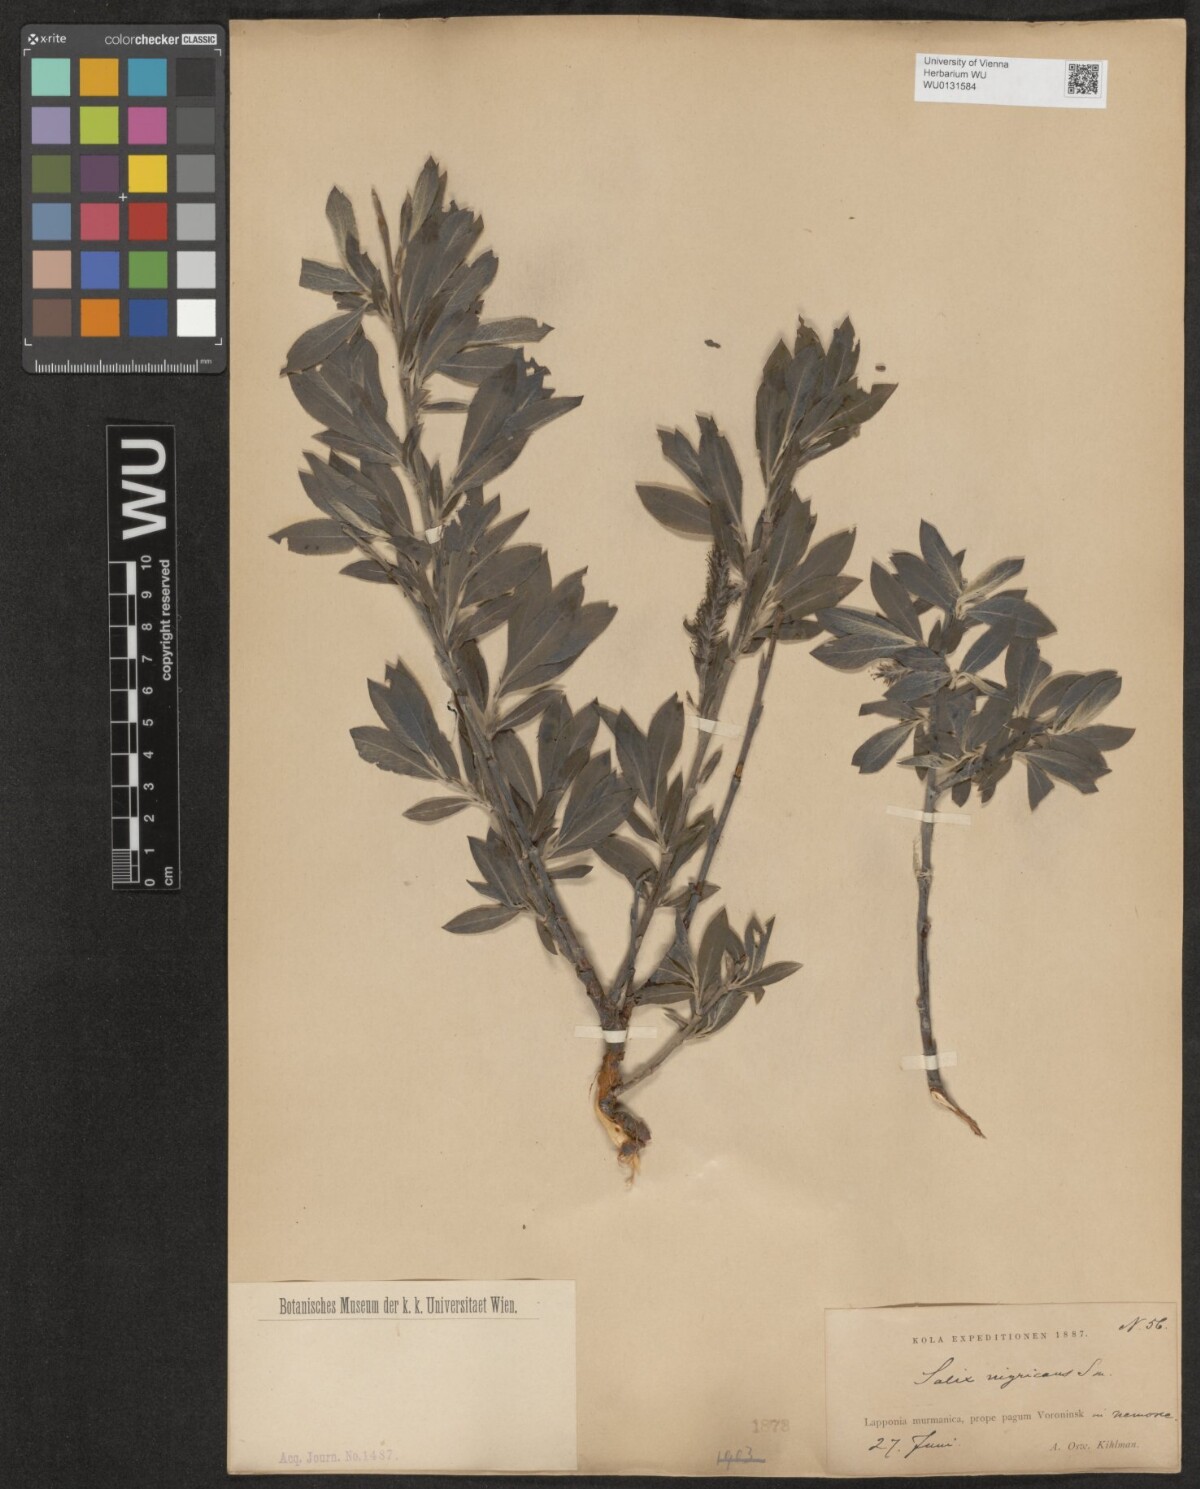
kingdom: Plantae
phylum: Tracheophyta
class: Magnoliopsida
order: Malpighiales
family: Salicaceae
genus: Salix
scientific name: Salix myrsinifolia
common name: Dark-leaved willow
